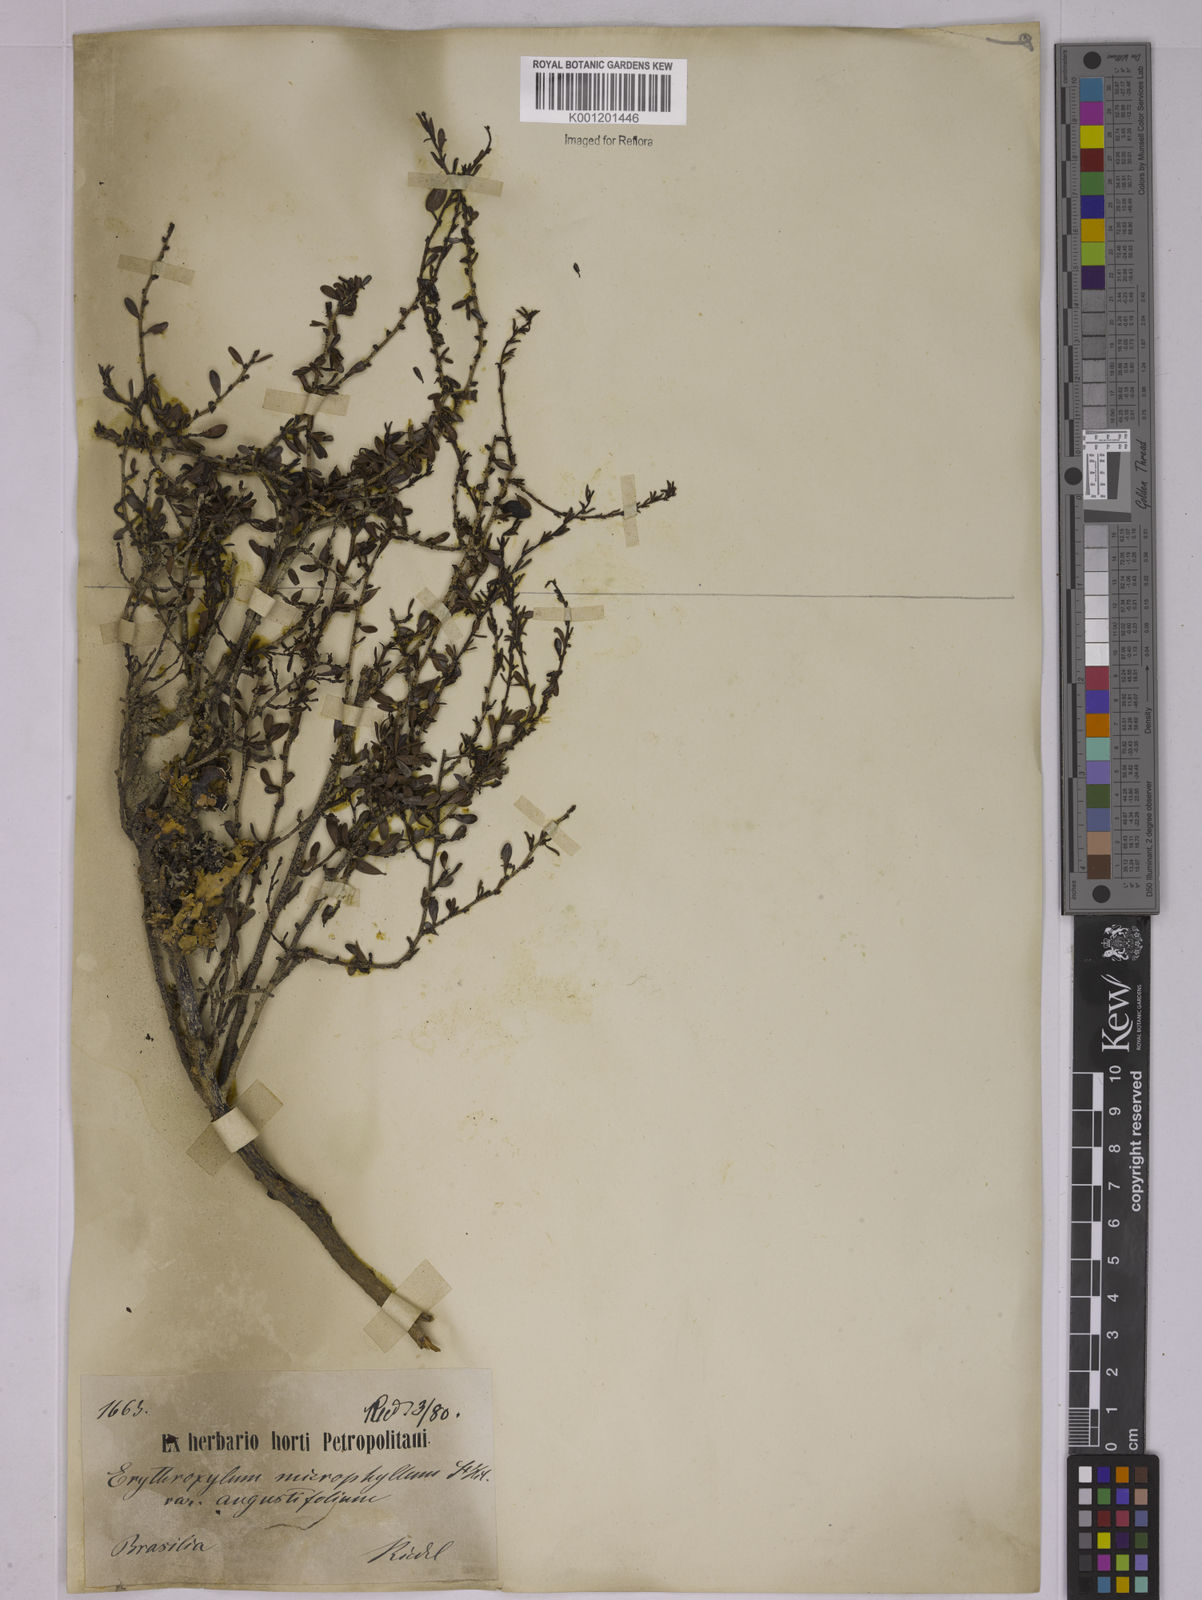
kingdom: Plantae
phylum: Tracheophyta
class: Magnoliopsida
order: Malpighiales
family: Erythroxylaceae
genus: Erythroxylum
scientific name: Erythroxylum microphyllum
